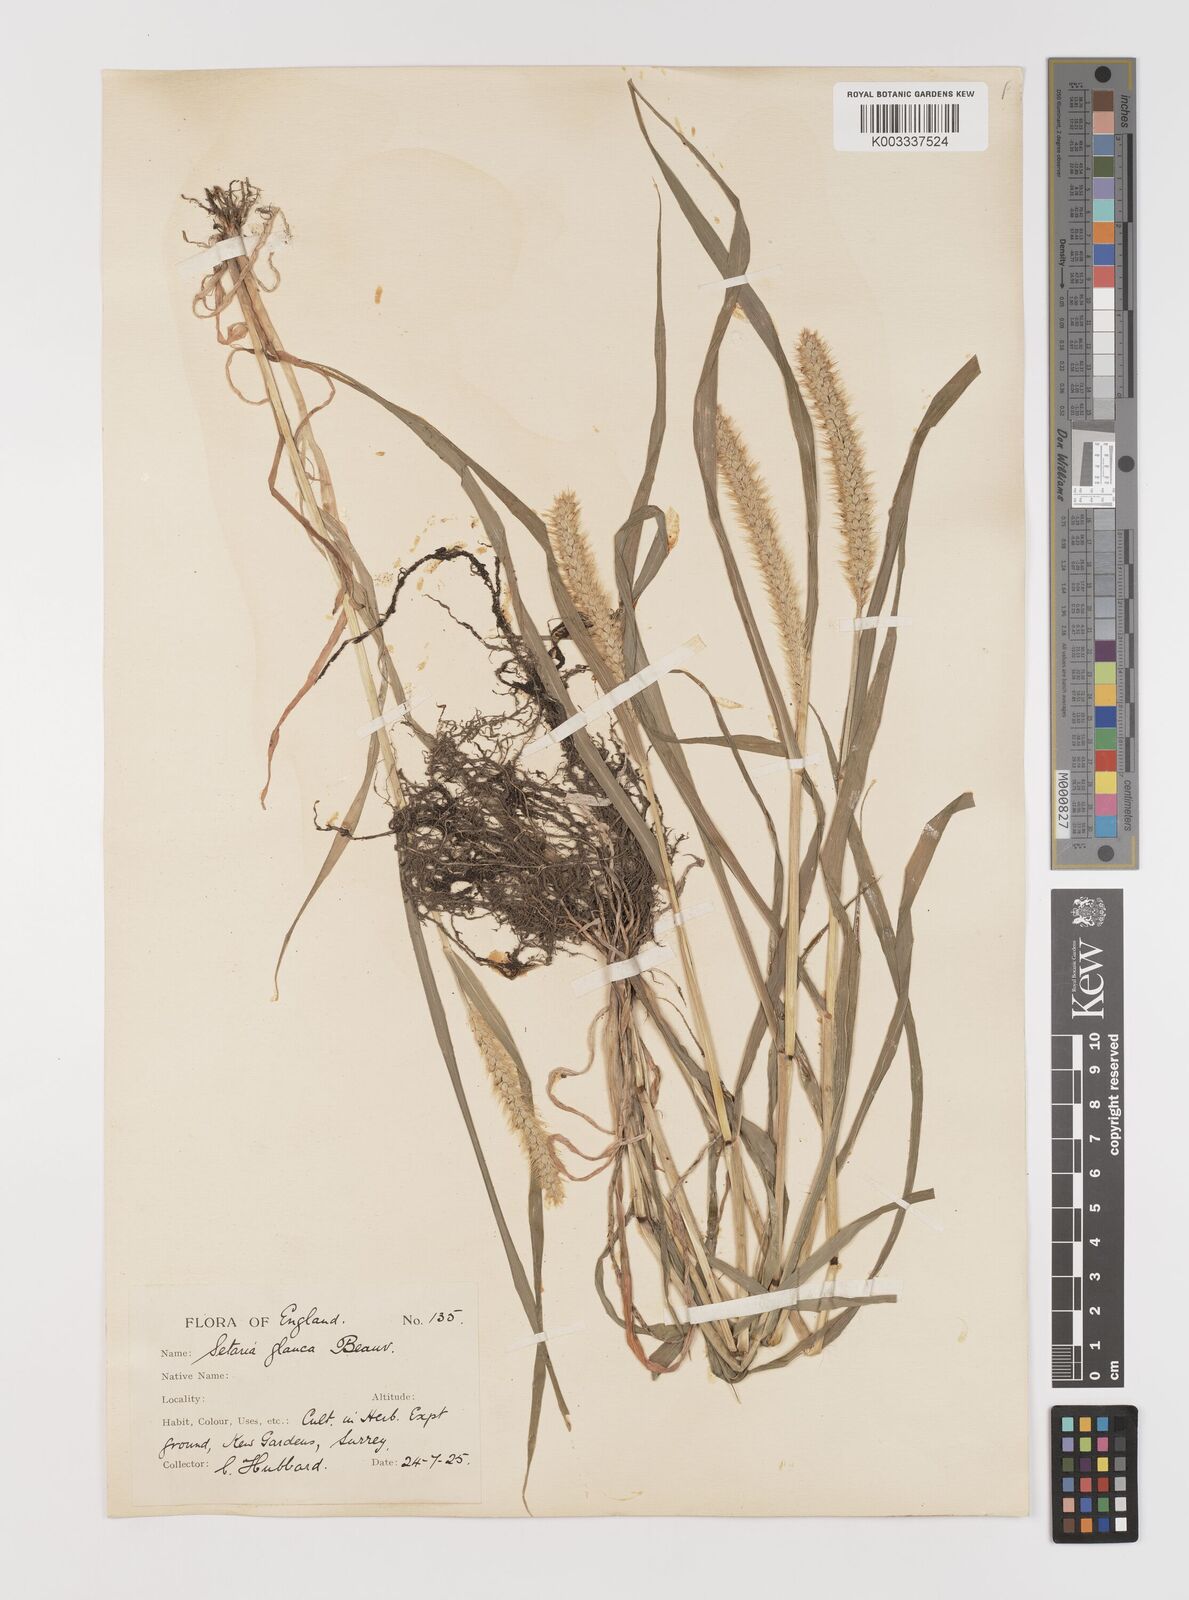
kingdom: Plantae
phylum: Tracheophyta
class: Liliopsida
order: Poales
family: Poaceae
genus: Setaria
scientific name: Setaria pumila
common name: Yellow bristle-grass
